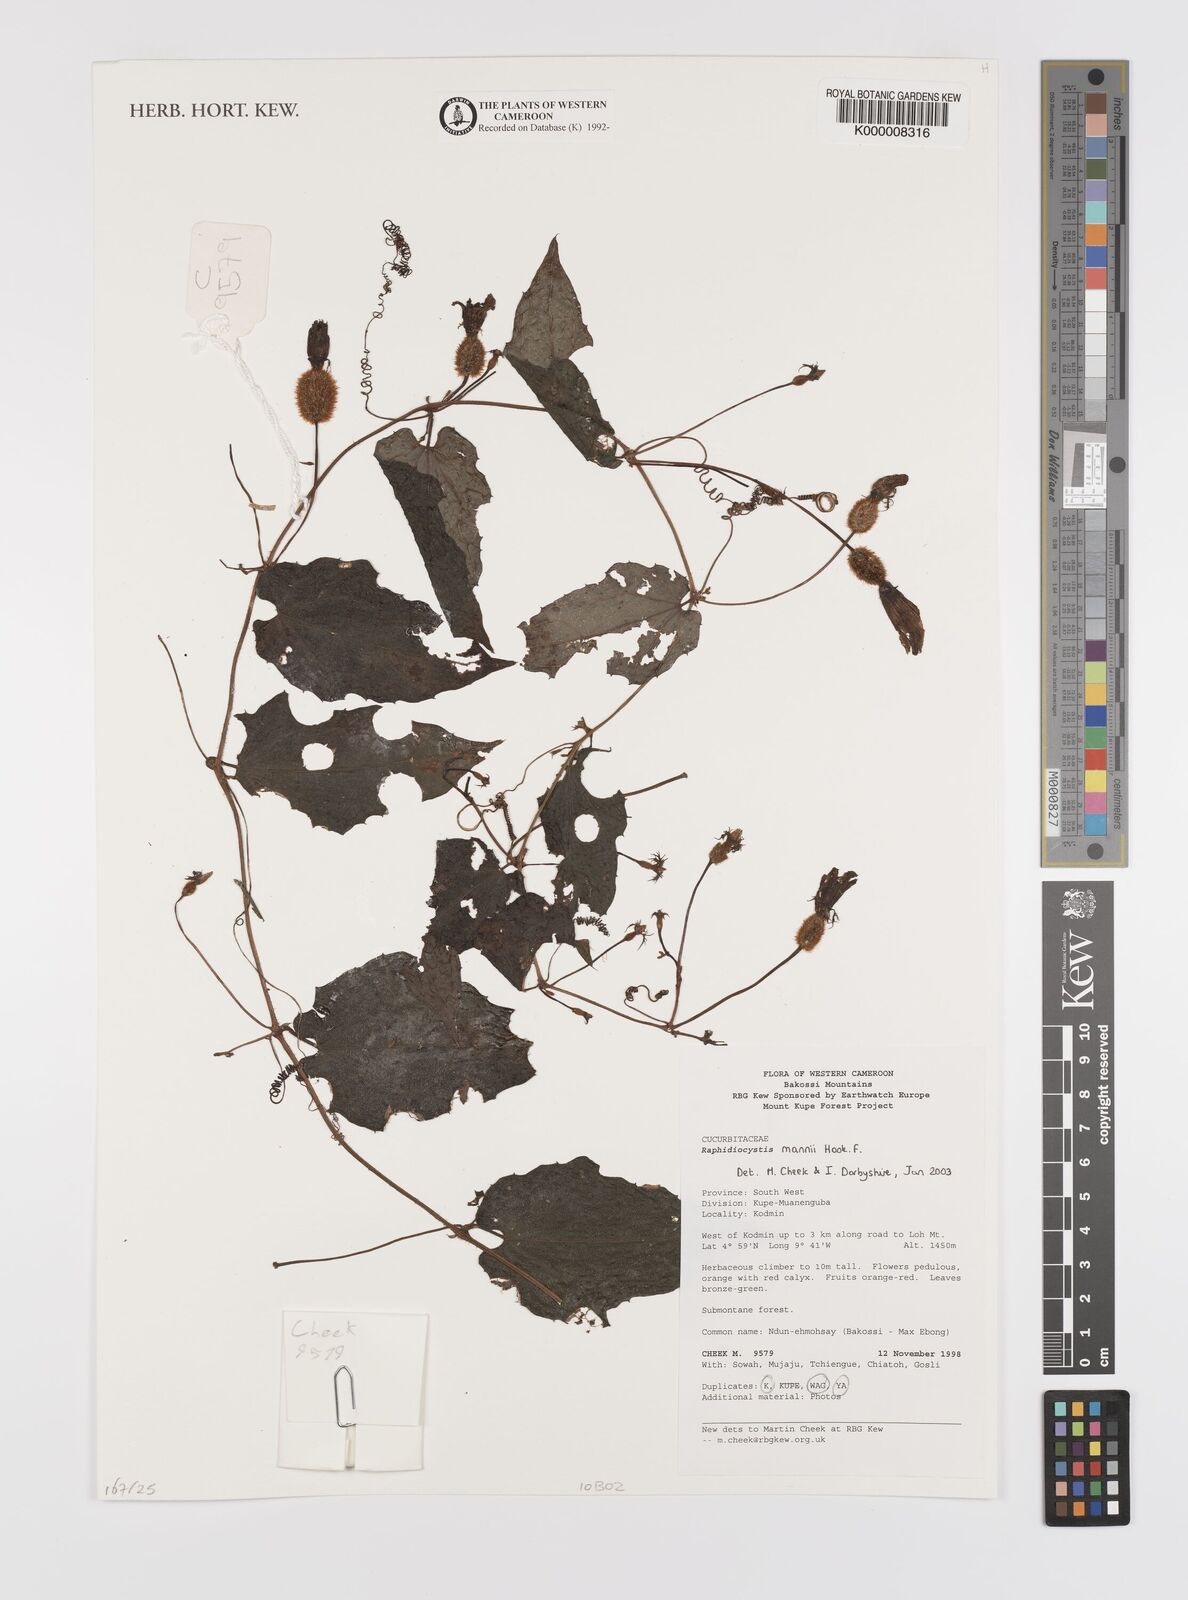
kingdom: Plantae
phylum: Tracheophyta
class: Magnoliopsida
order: Cucurbitales
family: Cucurbitaceae
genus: Raphidiocystis
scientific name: Raphidiocystis mannii
